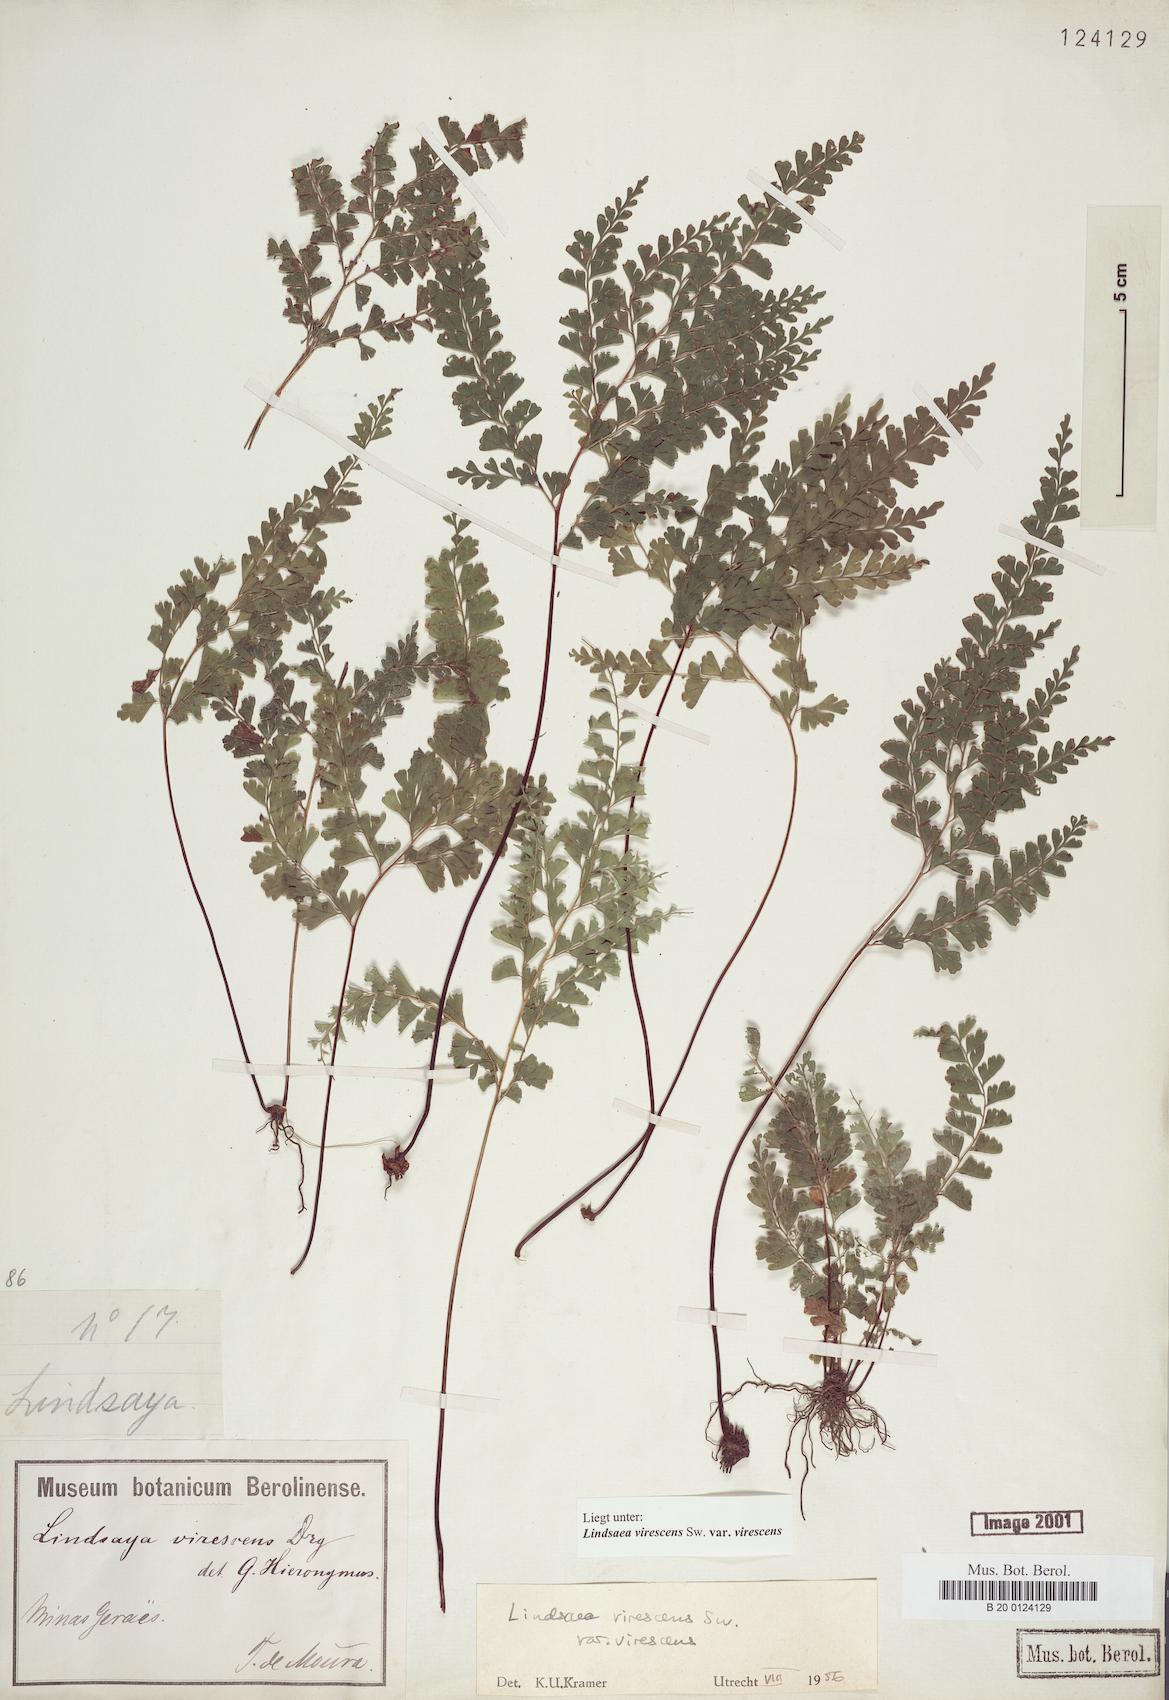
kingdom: Plantae
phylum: Tracheophyta
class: Polypodiopsida
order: Polypodiales
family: Lindsaeaceae
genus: Lindsaea
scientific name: Lindsaea virescens
